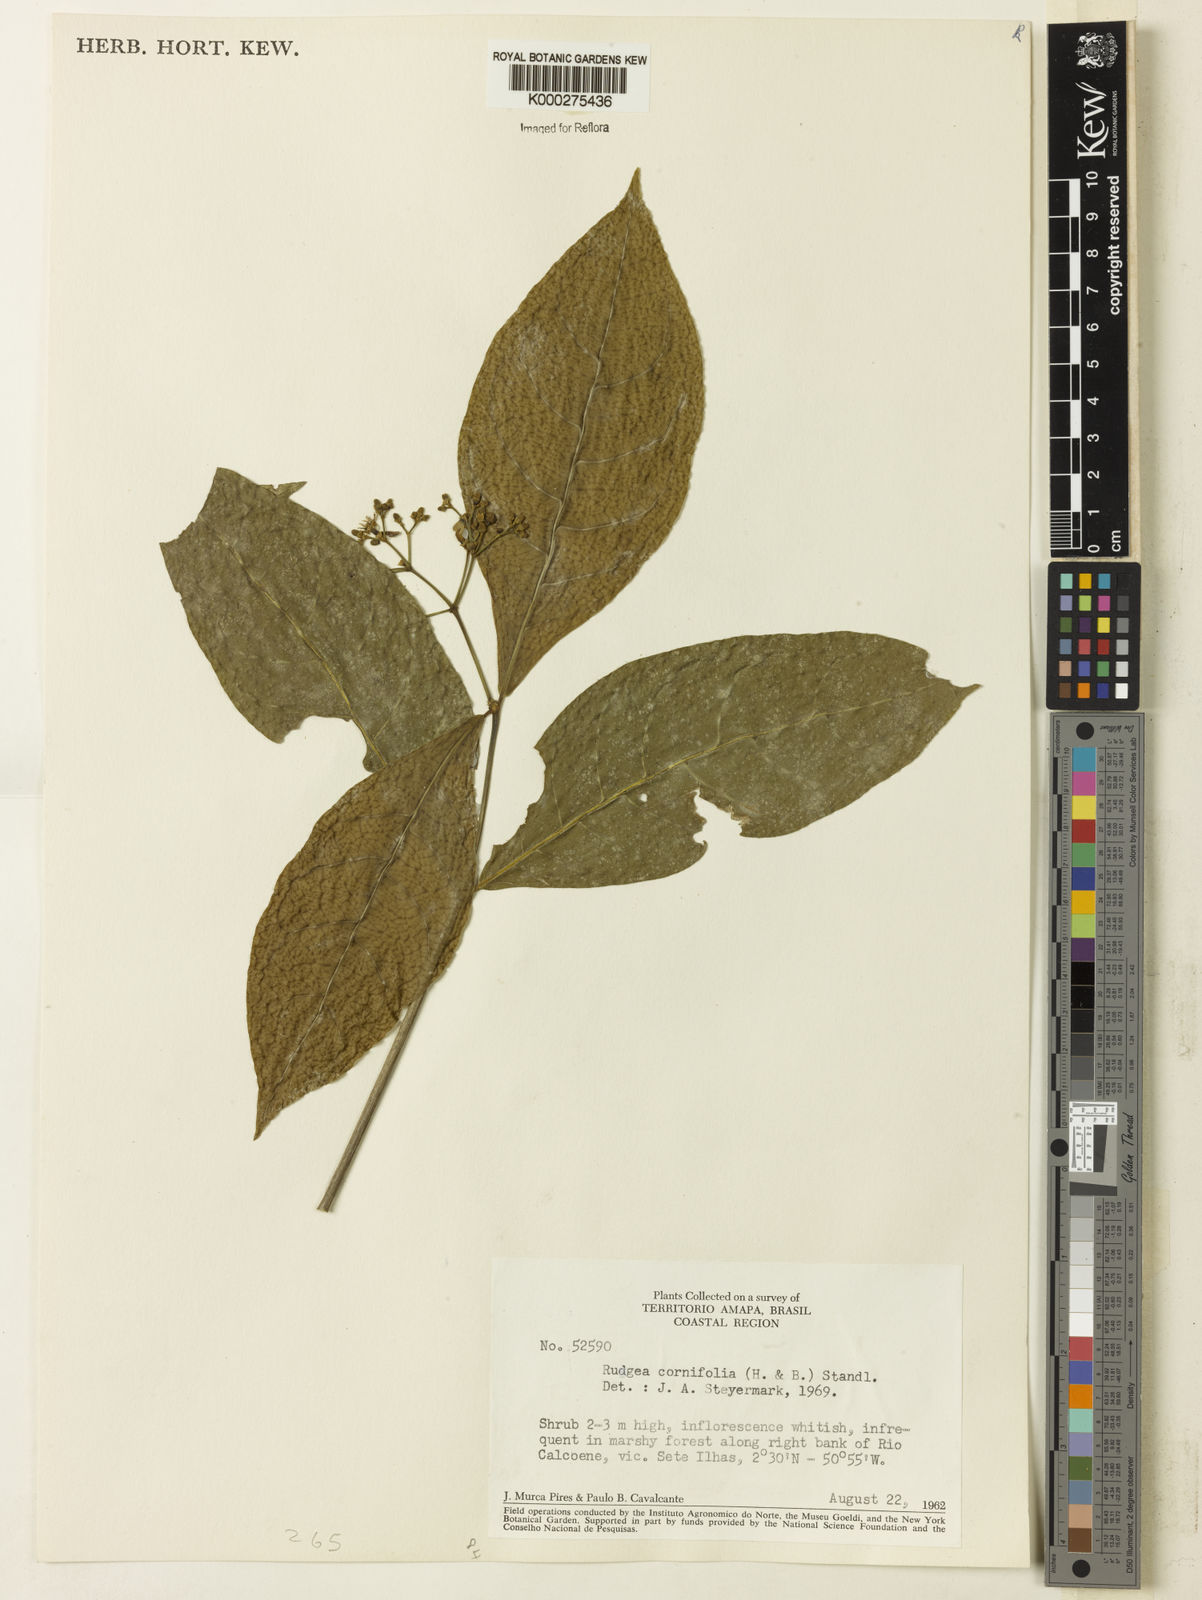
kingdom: Plantae
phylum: Tracheophyta
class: Magnoliopsida
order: Gentianales
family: Rubiaceae
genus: Rudgea
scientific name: Rudgea cornifolia
